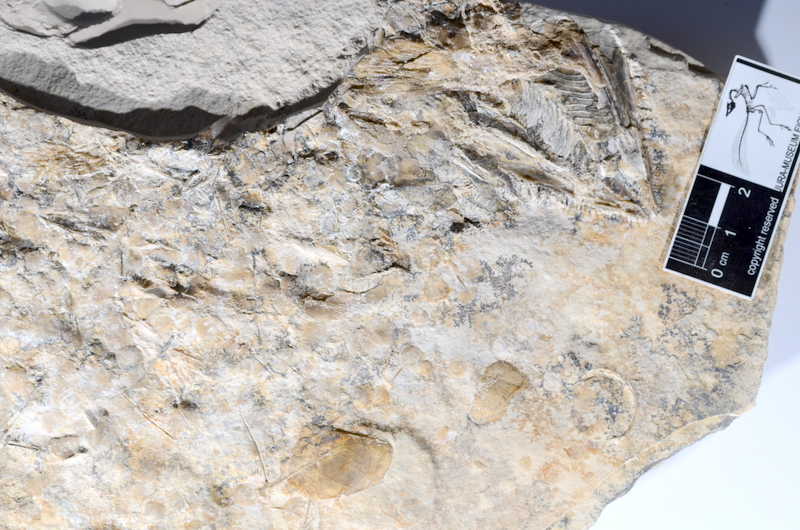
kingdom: Animalia
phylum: Chordata
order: Amiiformes
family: Caturidae
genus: Caturus
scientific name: Caturus
